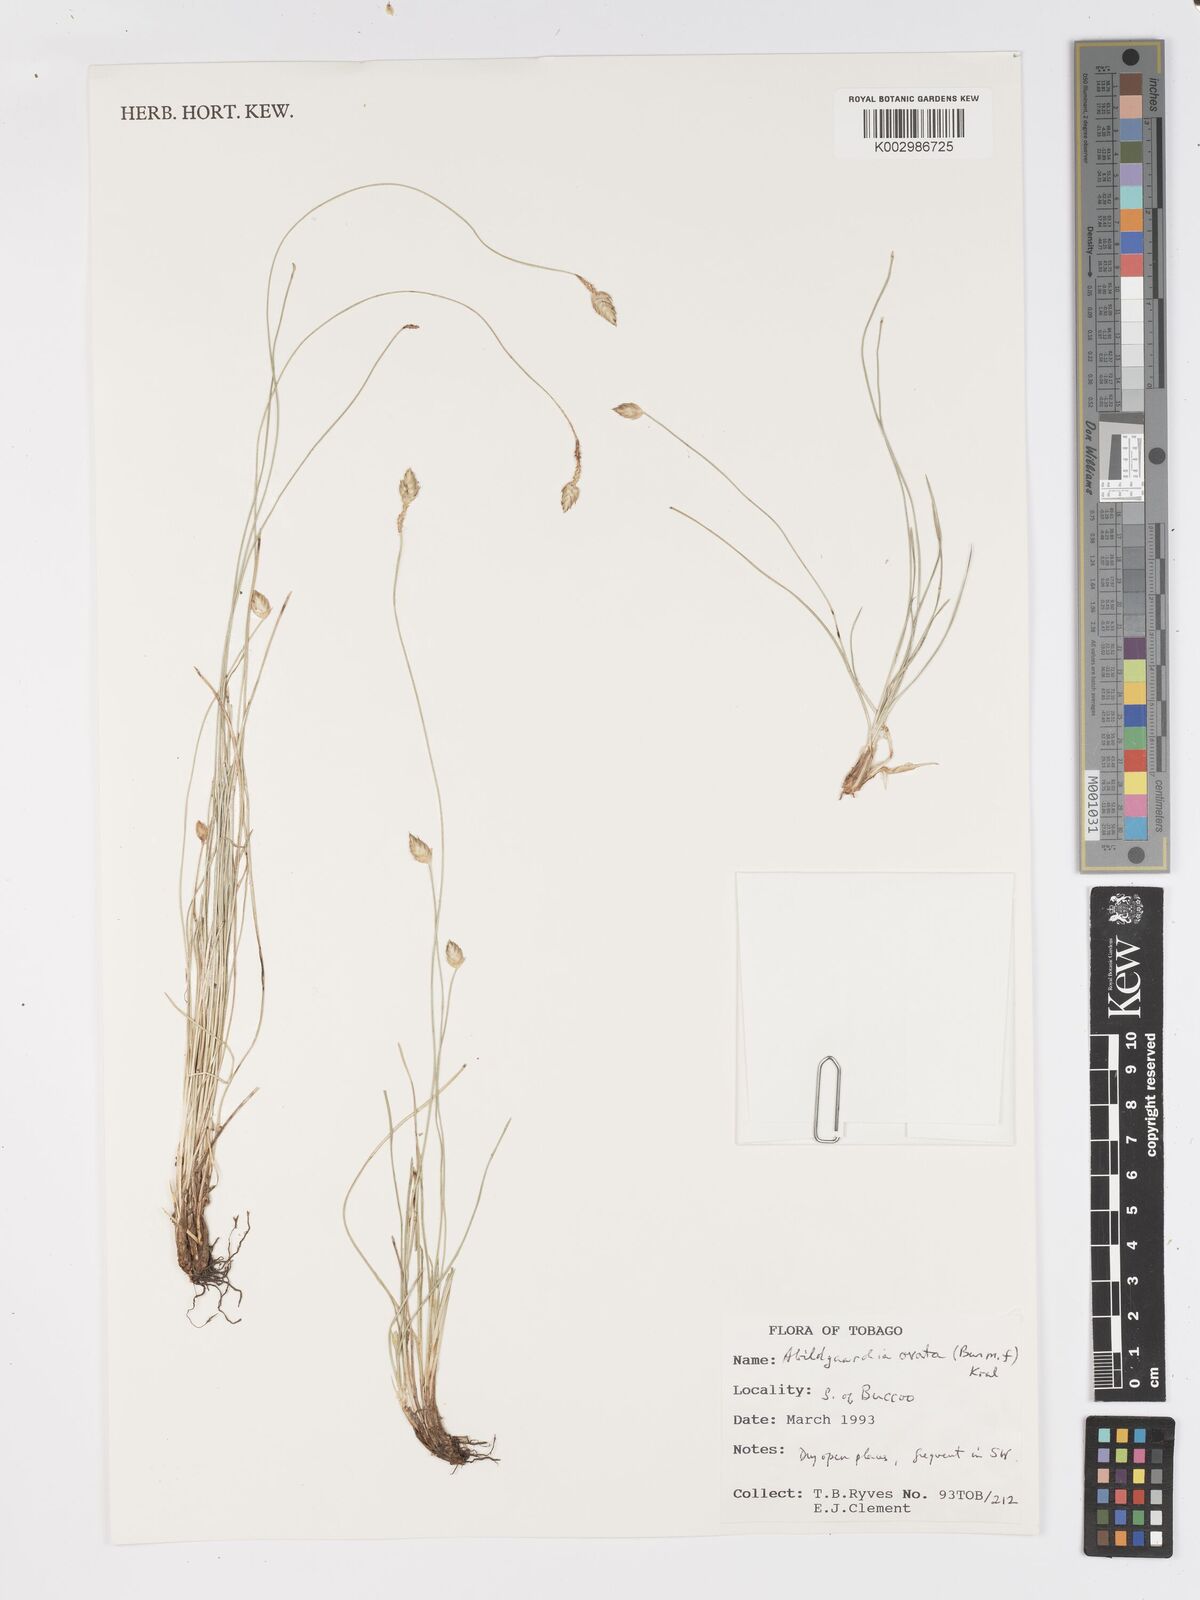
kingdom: Plantae
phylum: Tracheophyta
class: Liliopsida
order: Poales
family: Cyperaceae
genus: Fimbristylis
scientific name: Fimbristylis
